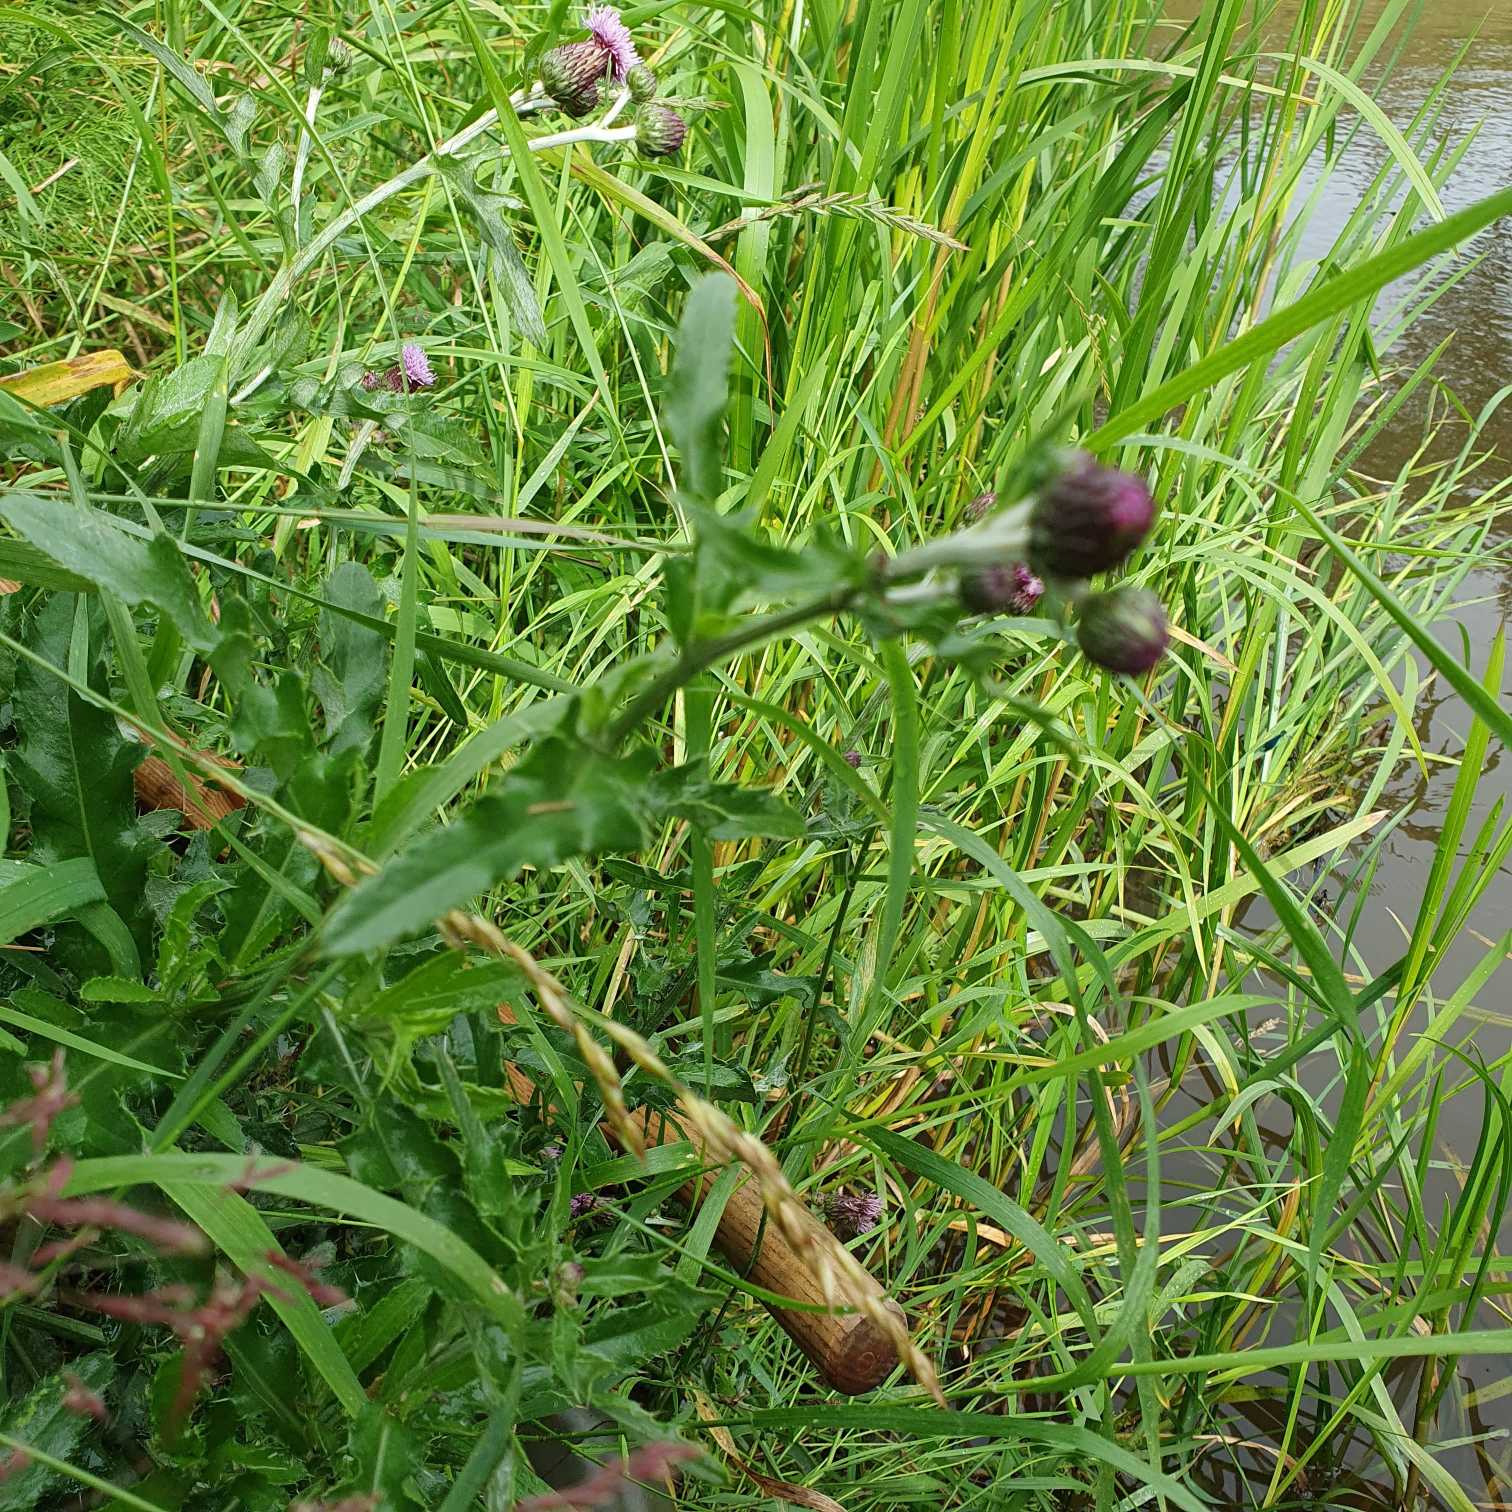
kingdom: Plantae
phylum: Tracheophyta
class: Magnoliopsida
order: Asterales
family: Asteraceae
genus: Cirsium
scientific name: Cirsium arvense
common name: Ager-tidsel
